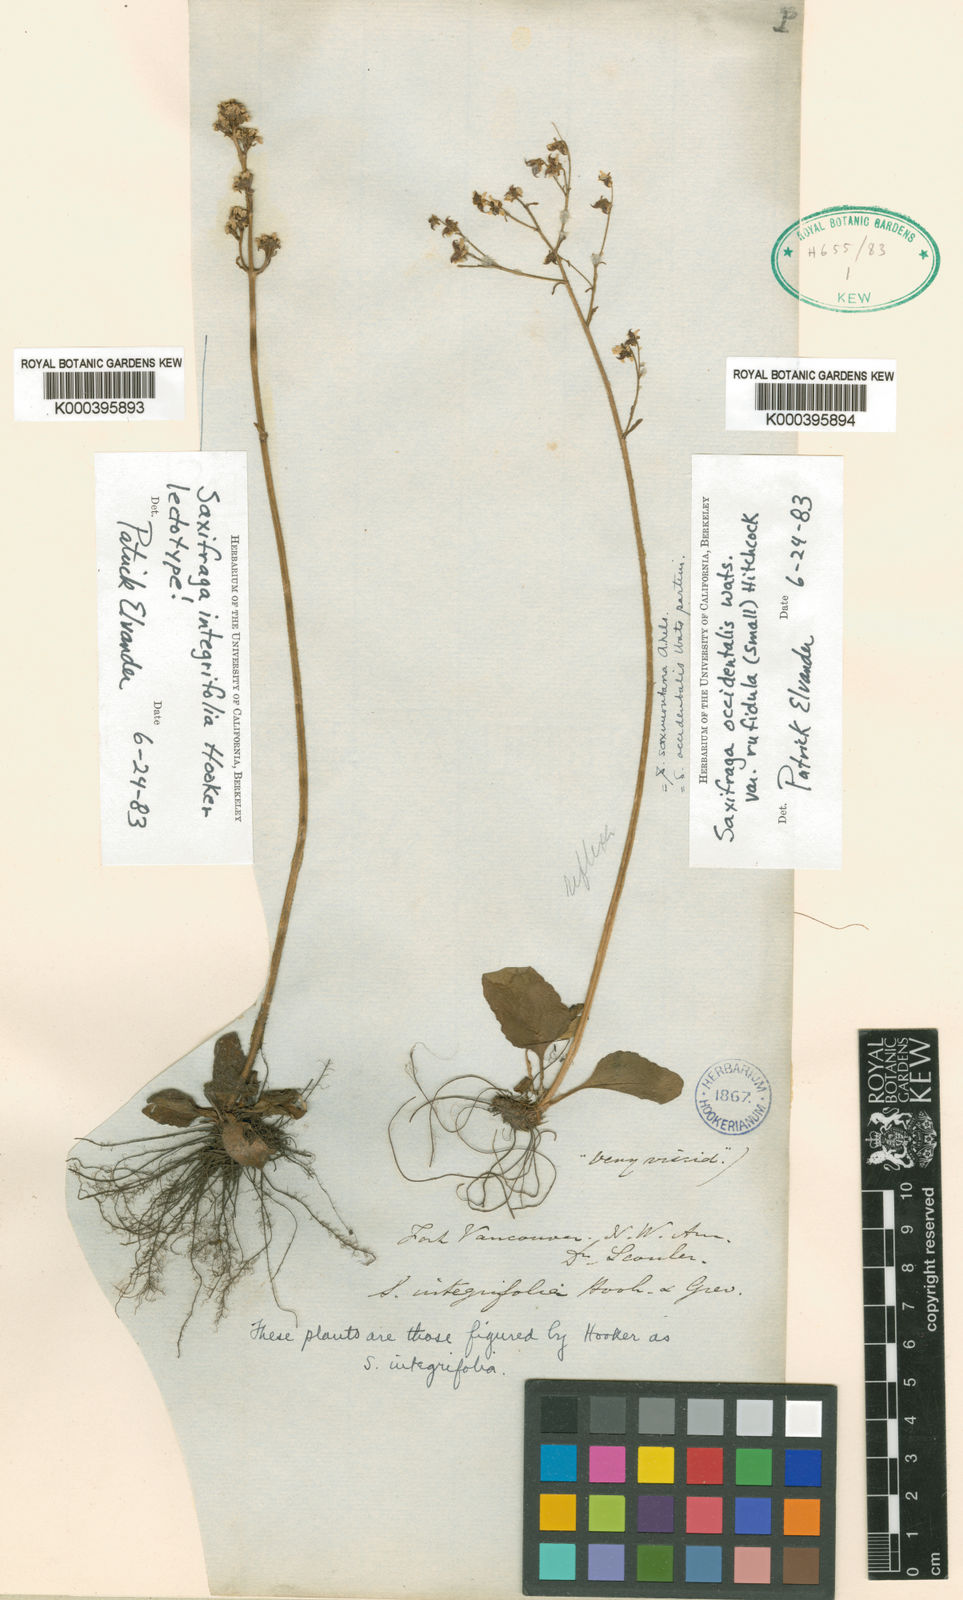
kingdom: Plantae
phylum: Tracheophyta
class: Magnoliopsida
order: Saxifragales
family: Saxifragaceae
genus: Micranthes
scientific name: Micranthes rufidula
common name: Rustyhair saxifrage
